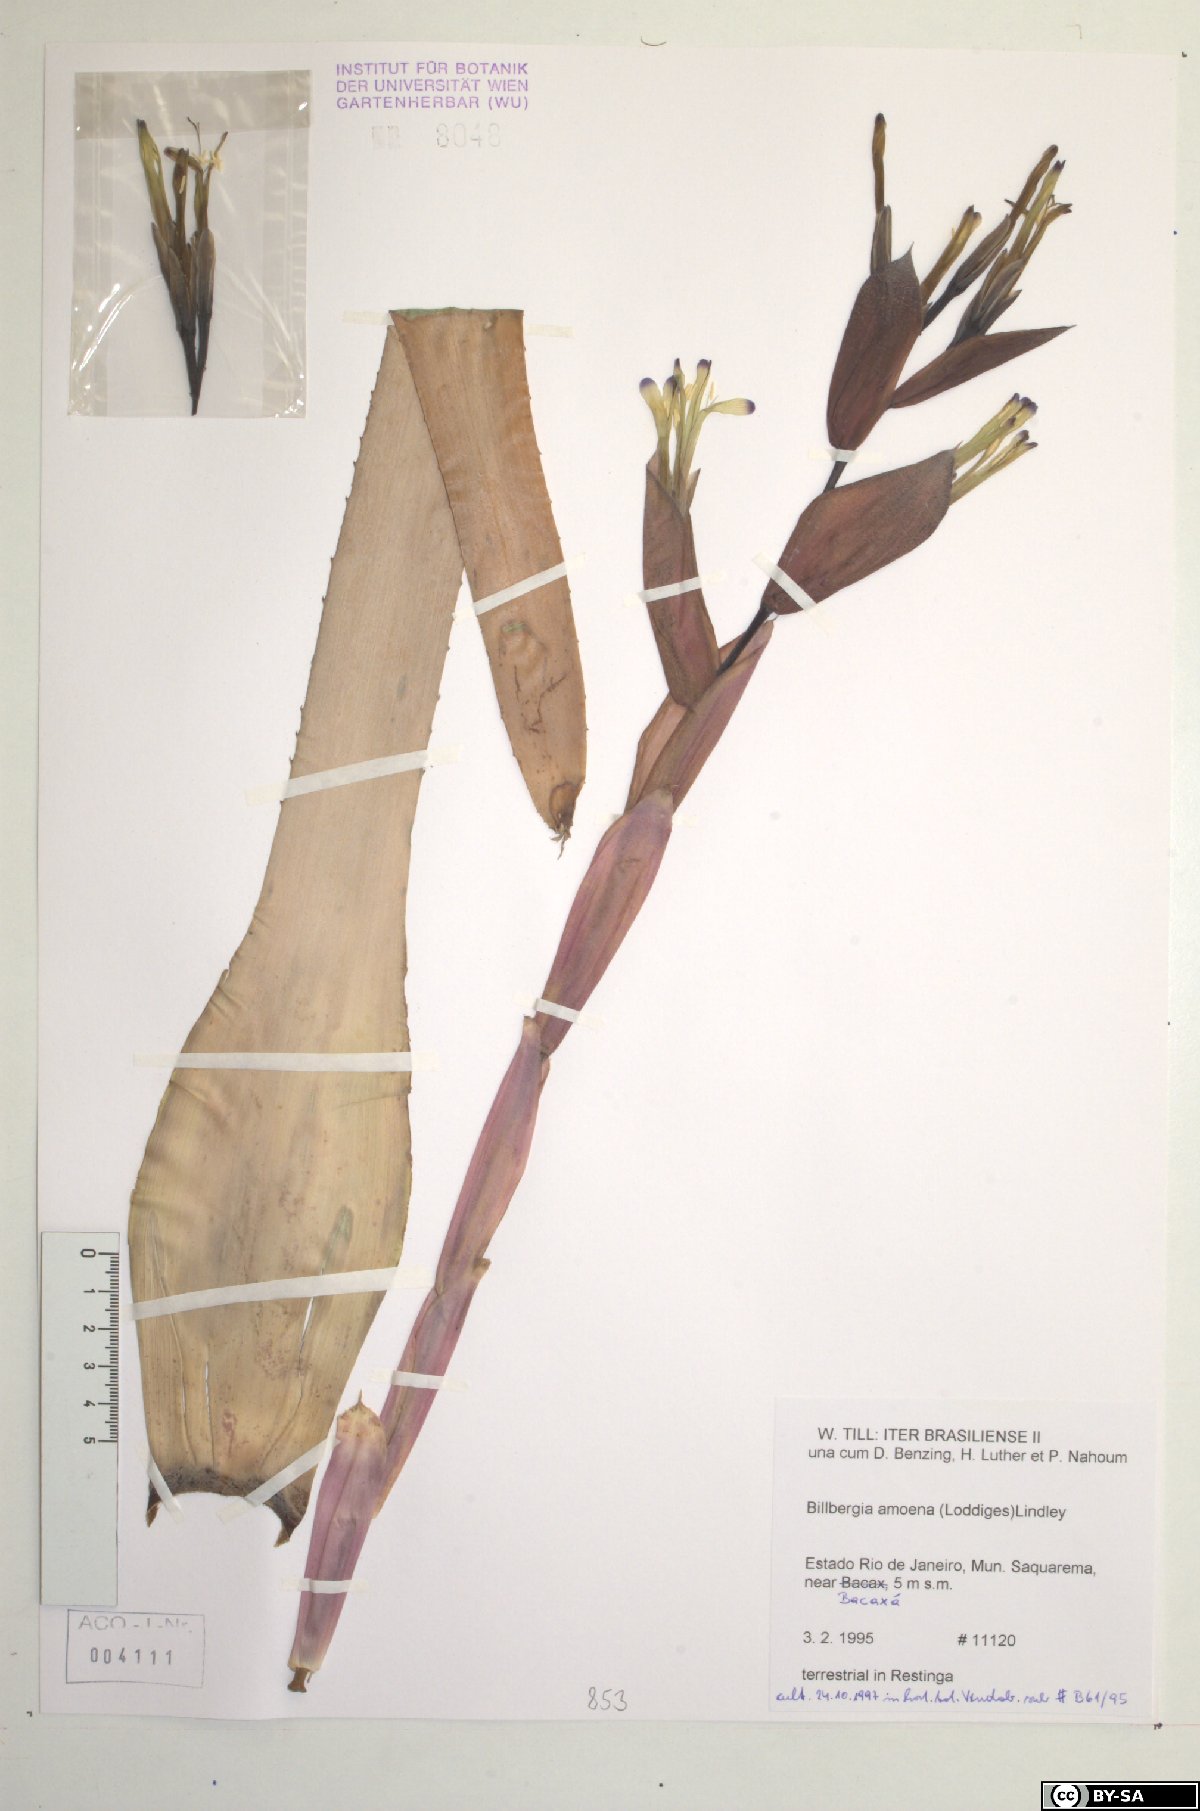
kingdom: Plantae
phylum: Tracheophyta
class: Liliopsida
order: Poales
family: Bromeliaceae
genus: Billbergia
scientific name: Billbergia amoena
